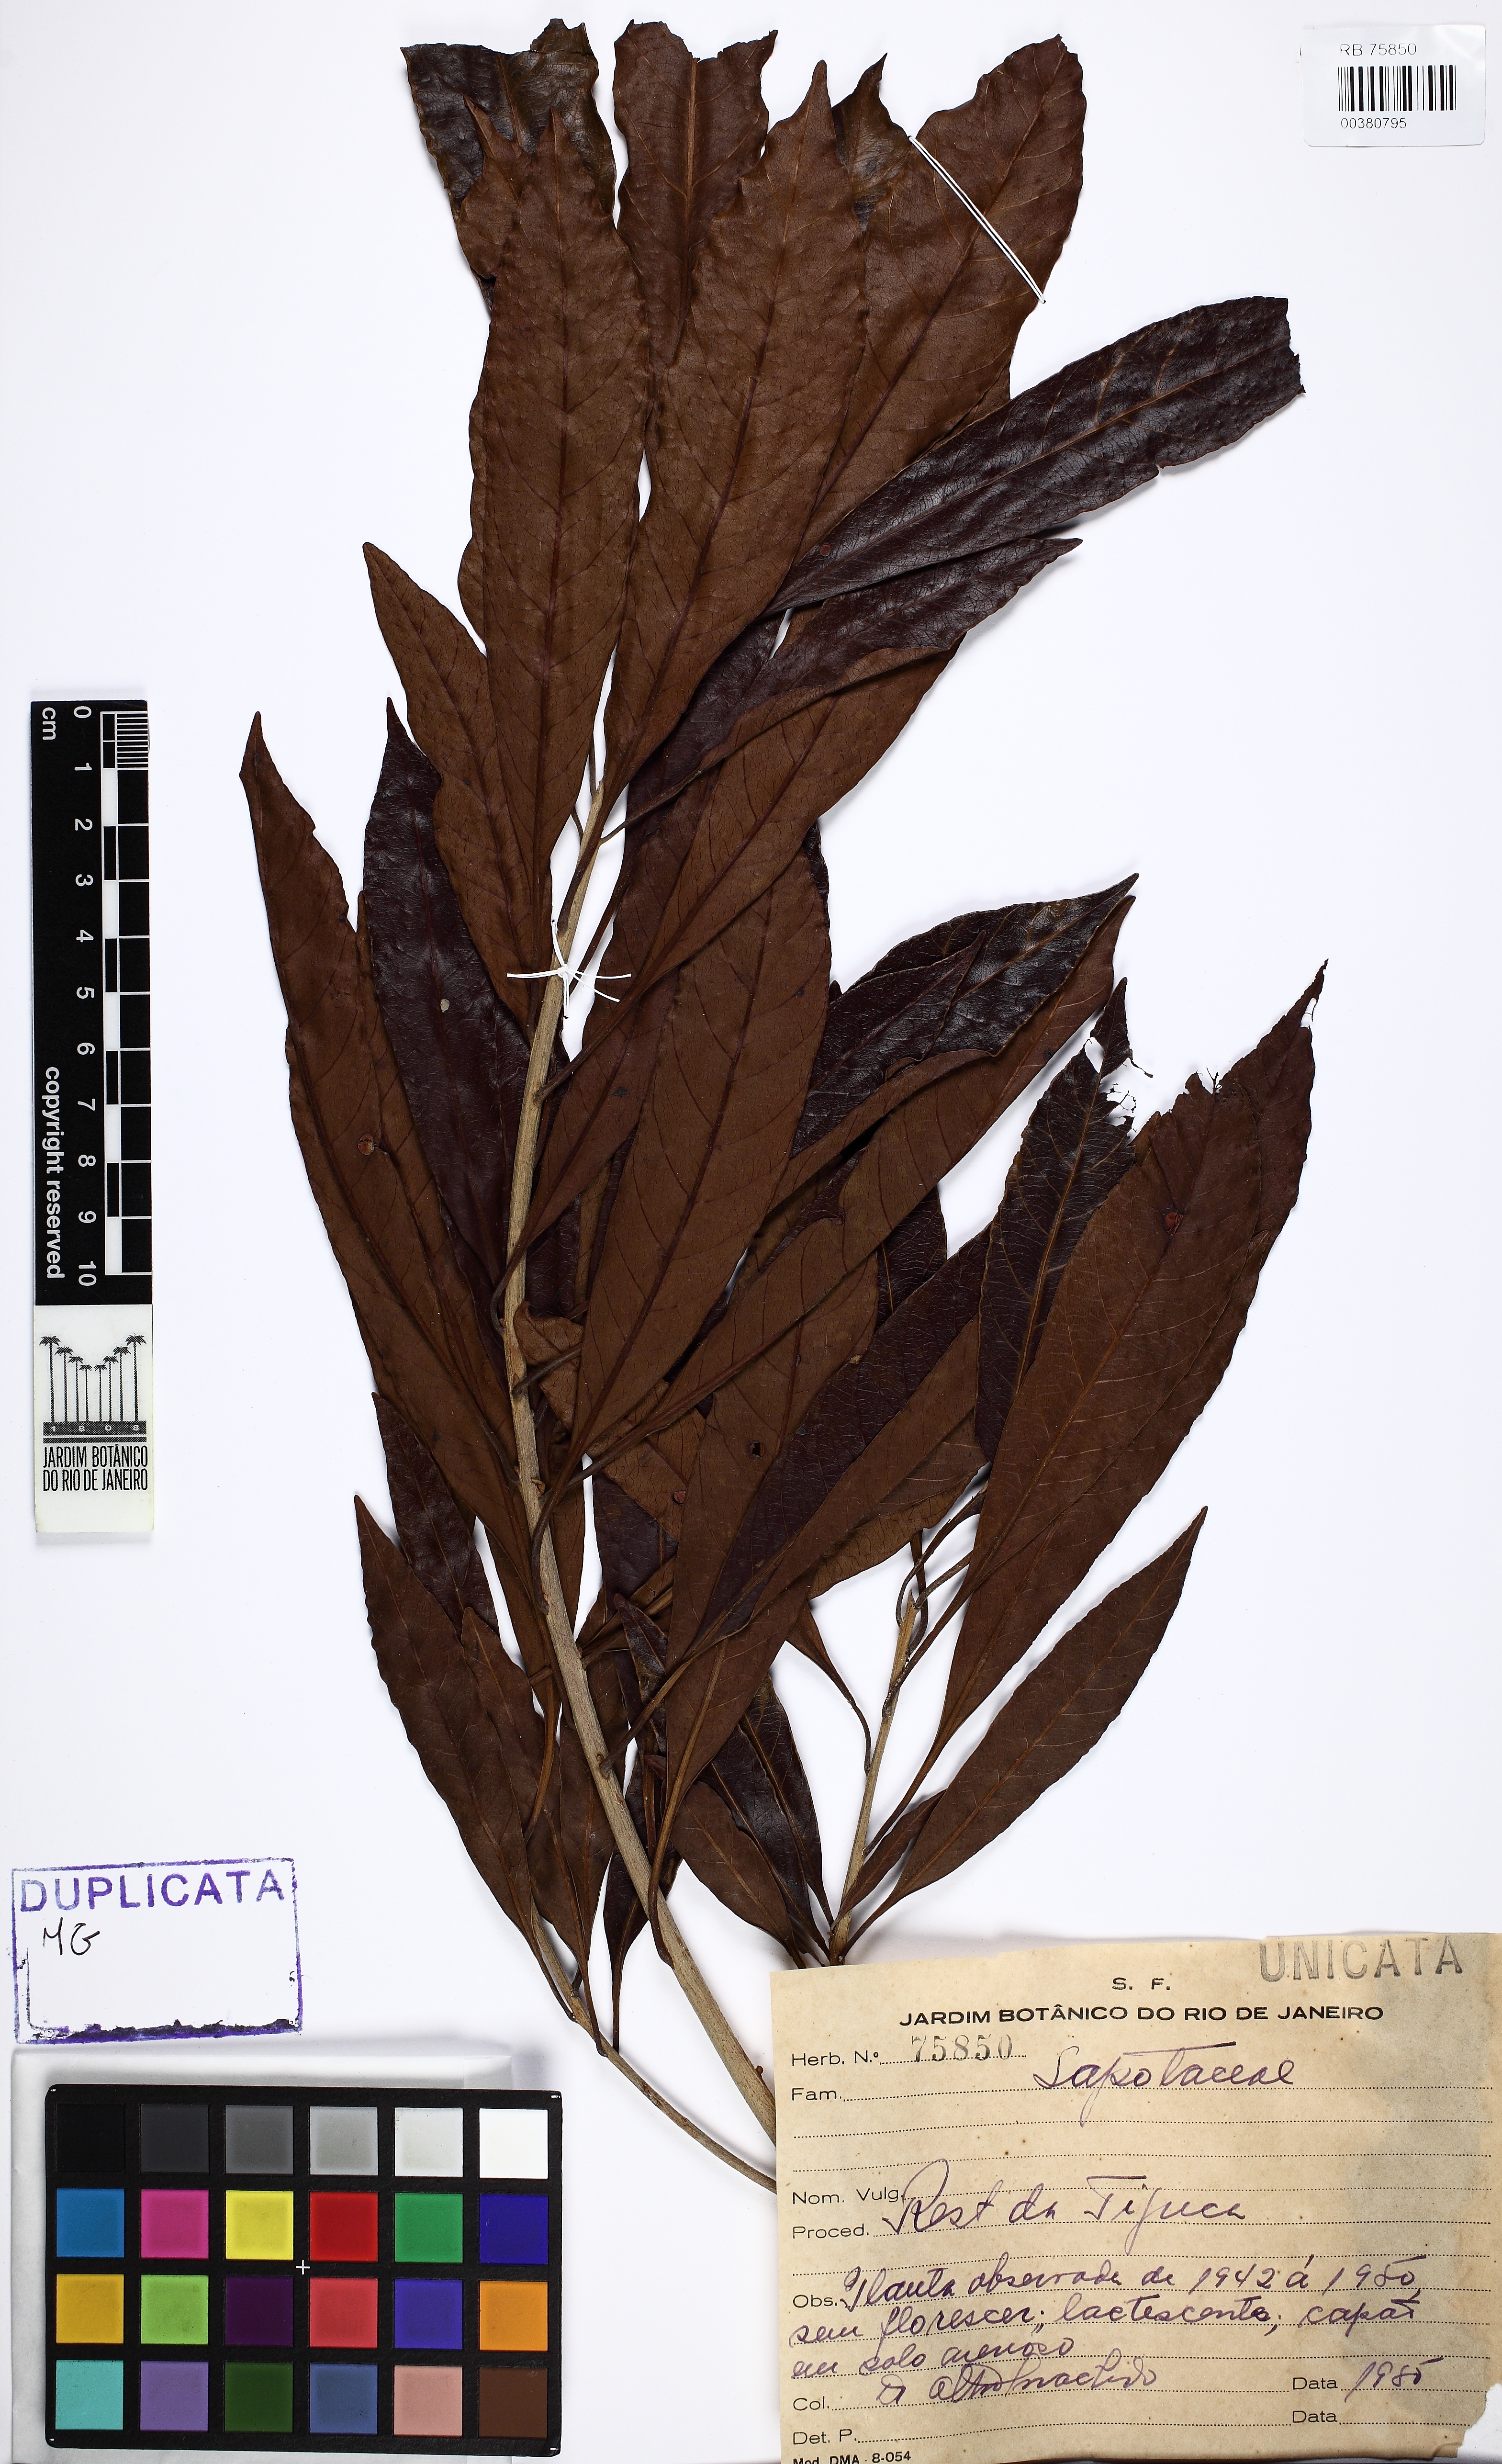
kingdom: Plantae
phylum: Tracheophyta
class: Magnoliopsida
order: Ericales
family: Sapotaceae
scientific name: Sapotaceae
